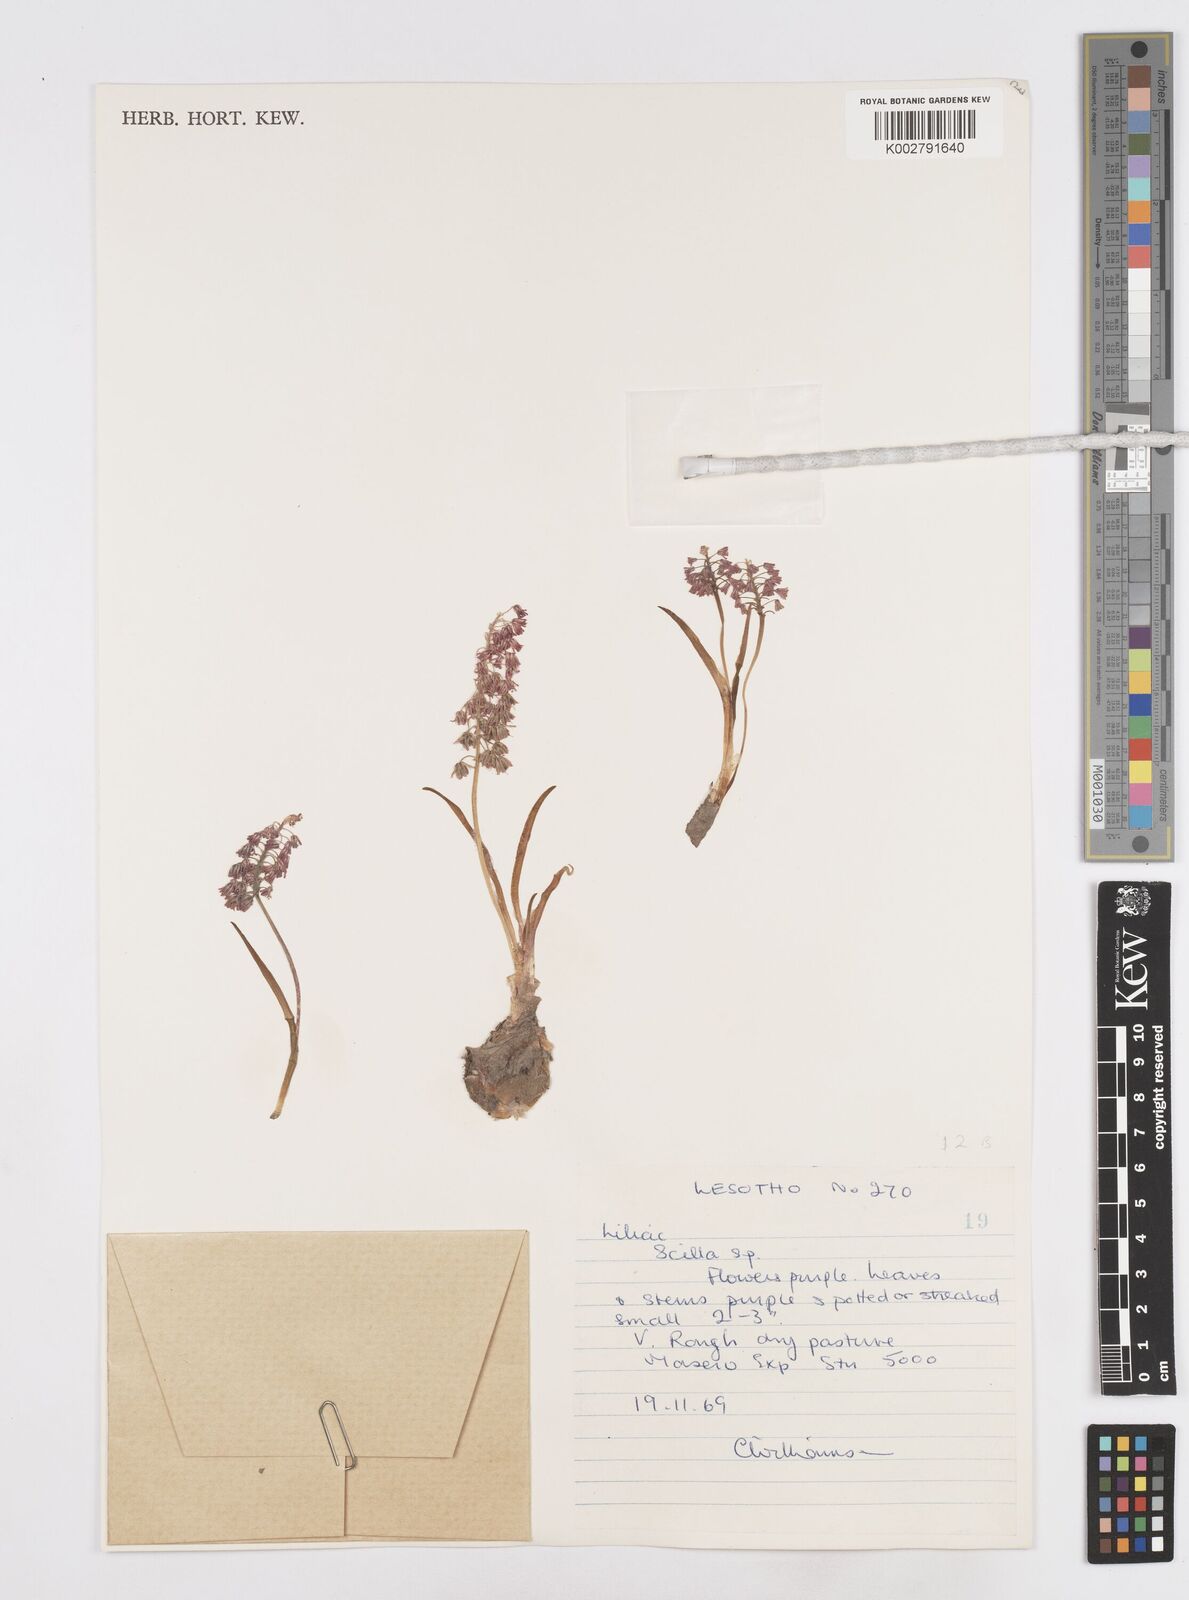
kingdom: Plantae
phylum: Tracheophyta
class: Liliopsida
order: Asparagales
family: Asparagaceae
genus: Scilla
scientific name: Scilla
